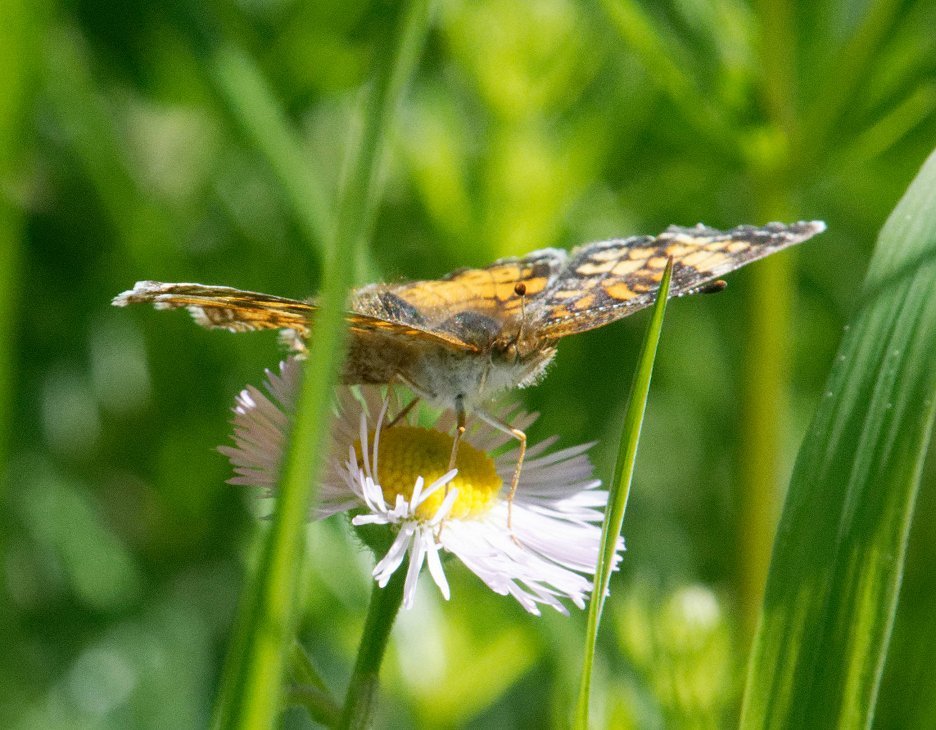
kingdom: Animalia
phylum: Arthropoda
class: Insecta
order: Lepidoptera
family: Nymphalidae
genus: Phyciodes
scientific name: Phyciodes tharos
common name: Pearl Crescent
